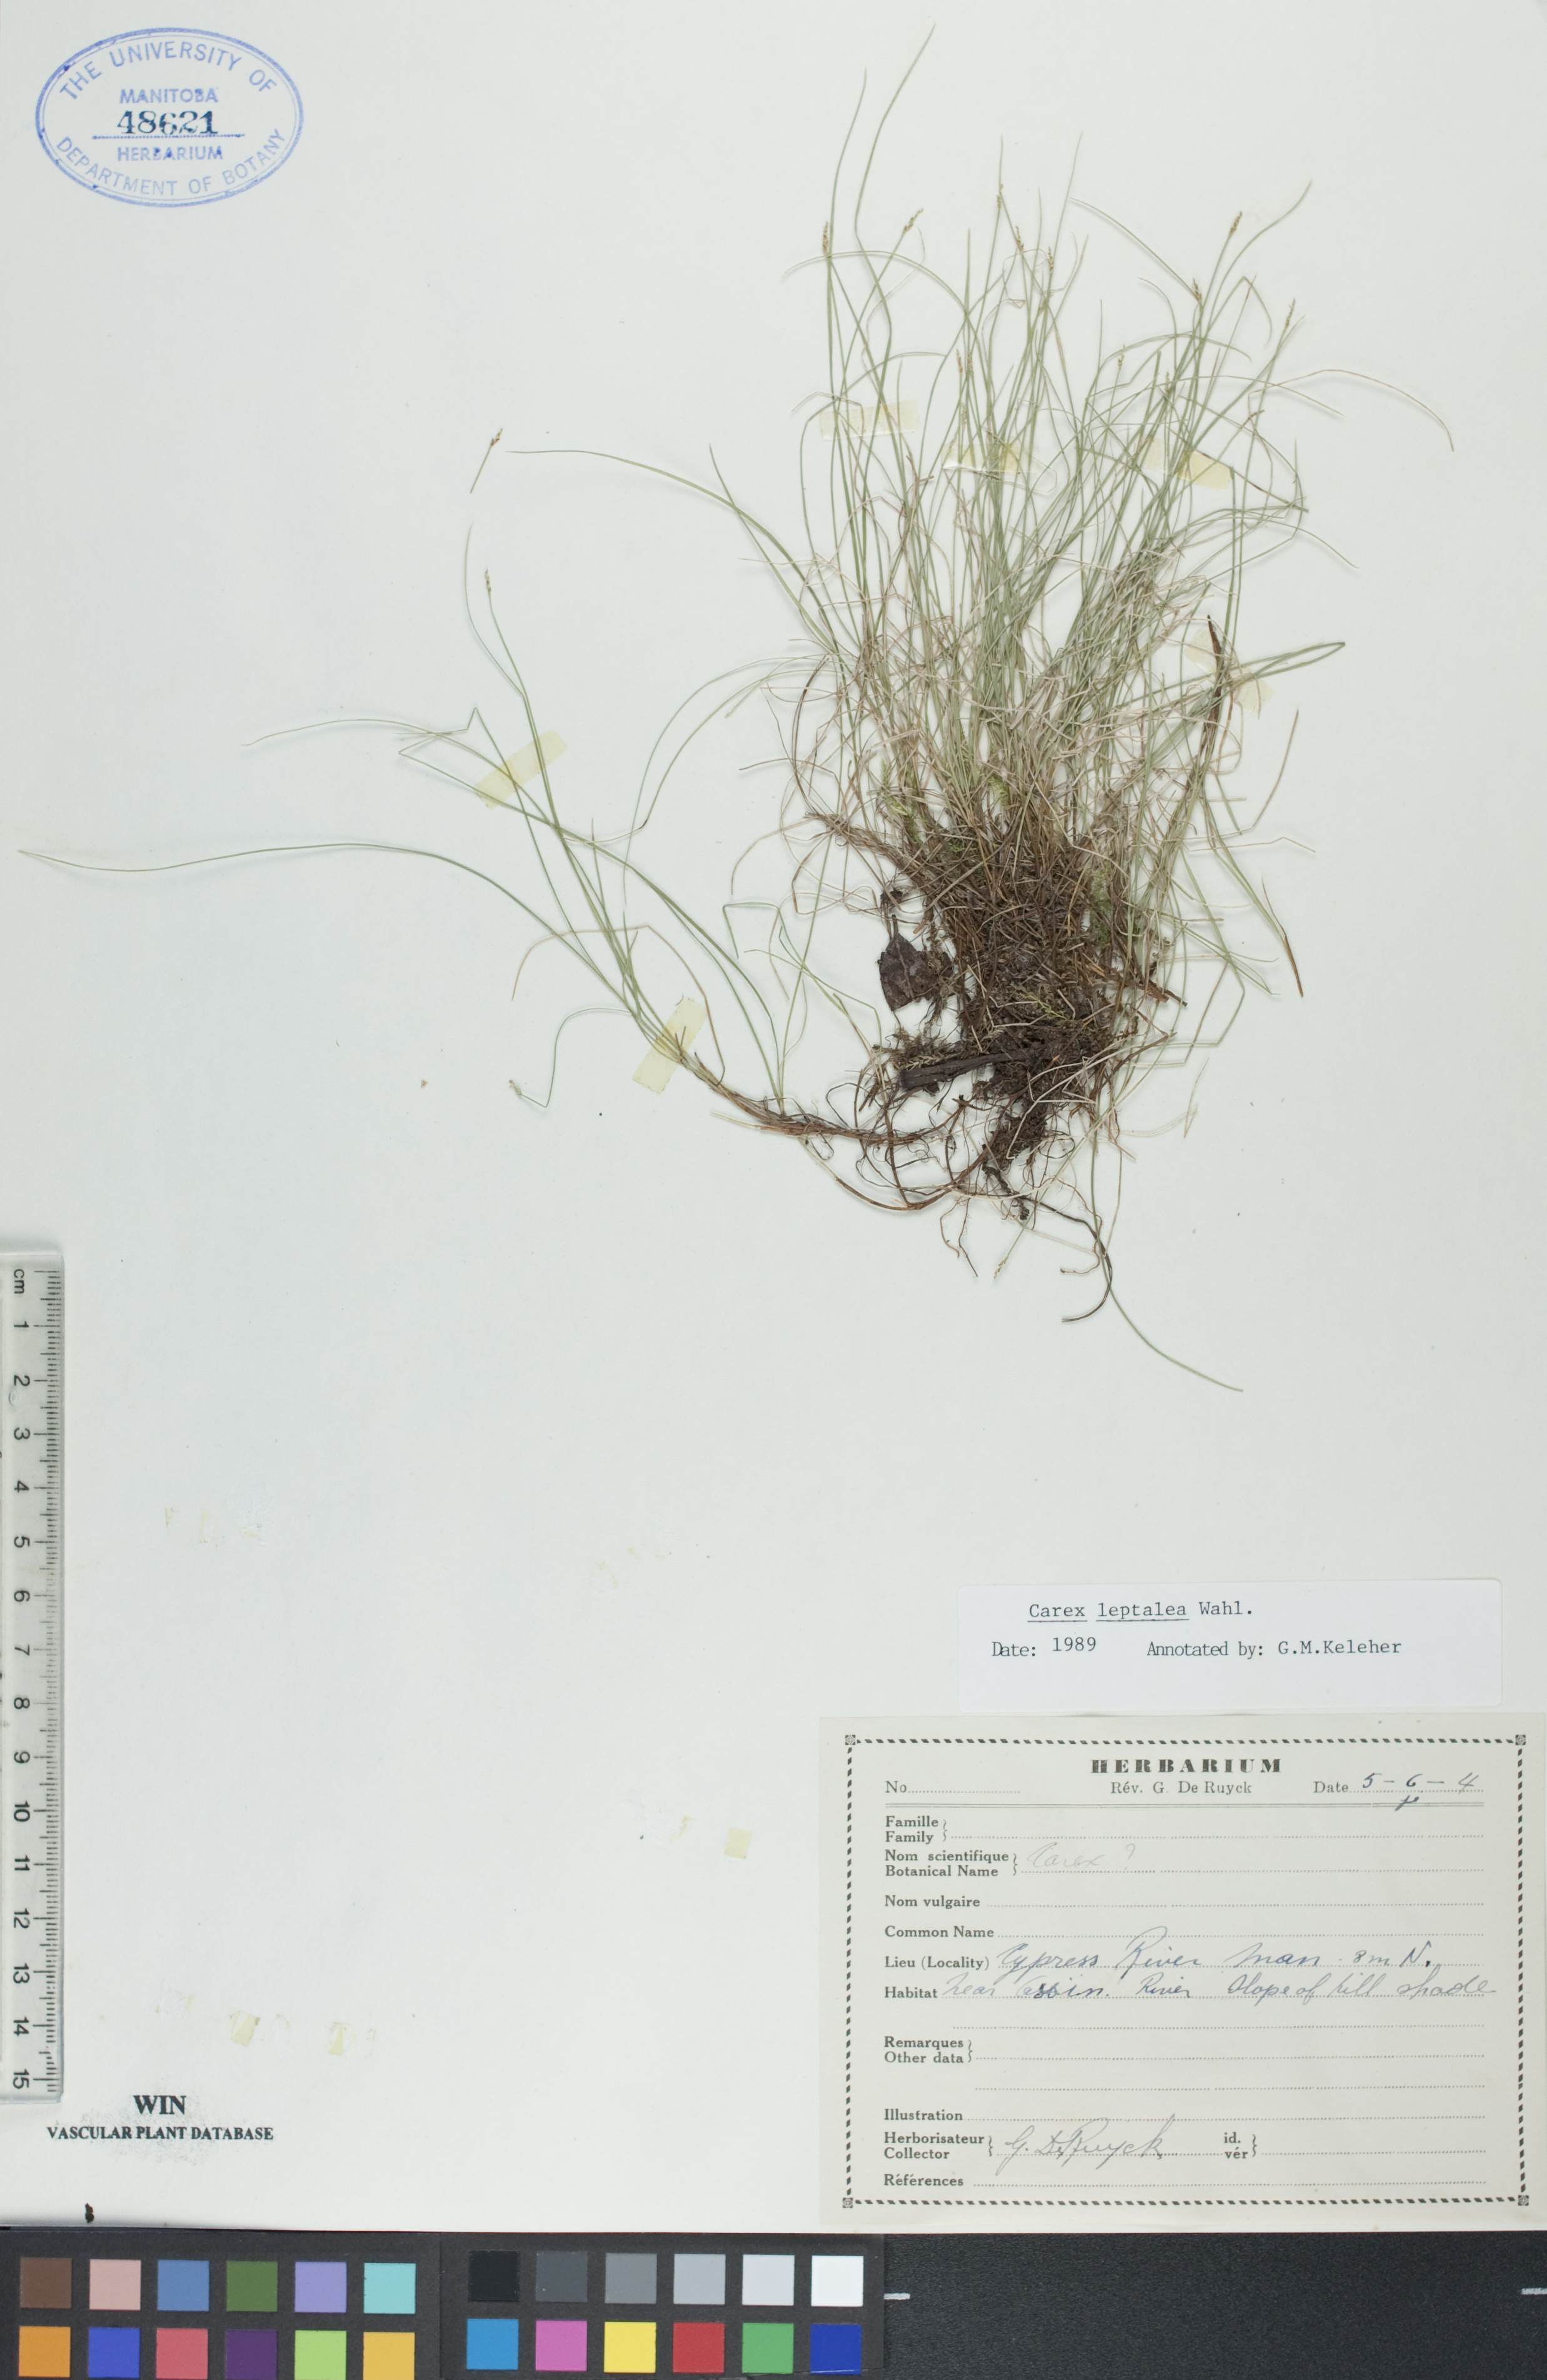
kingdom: Plantae
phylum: Tracheophyta
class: Liliopsida
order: Poales
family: Cyperaceae
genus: Carex
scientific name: Carex leptalea
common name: Bristly-stalked sedge
